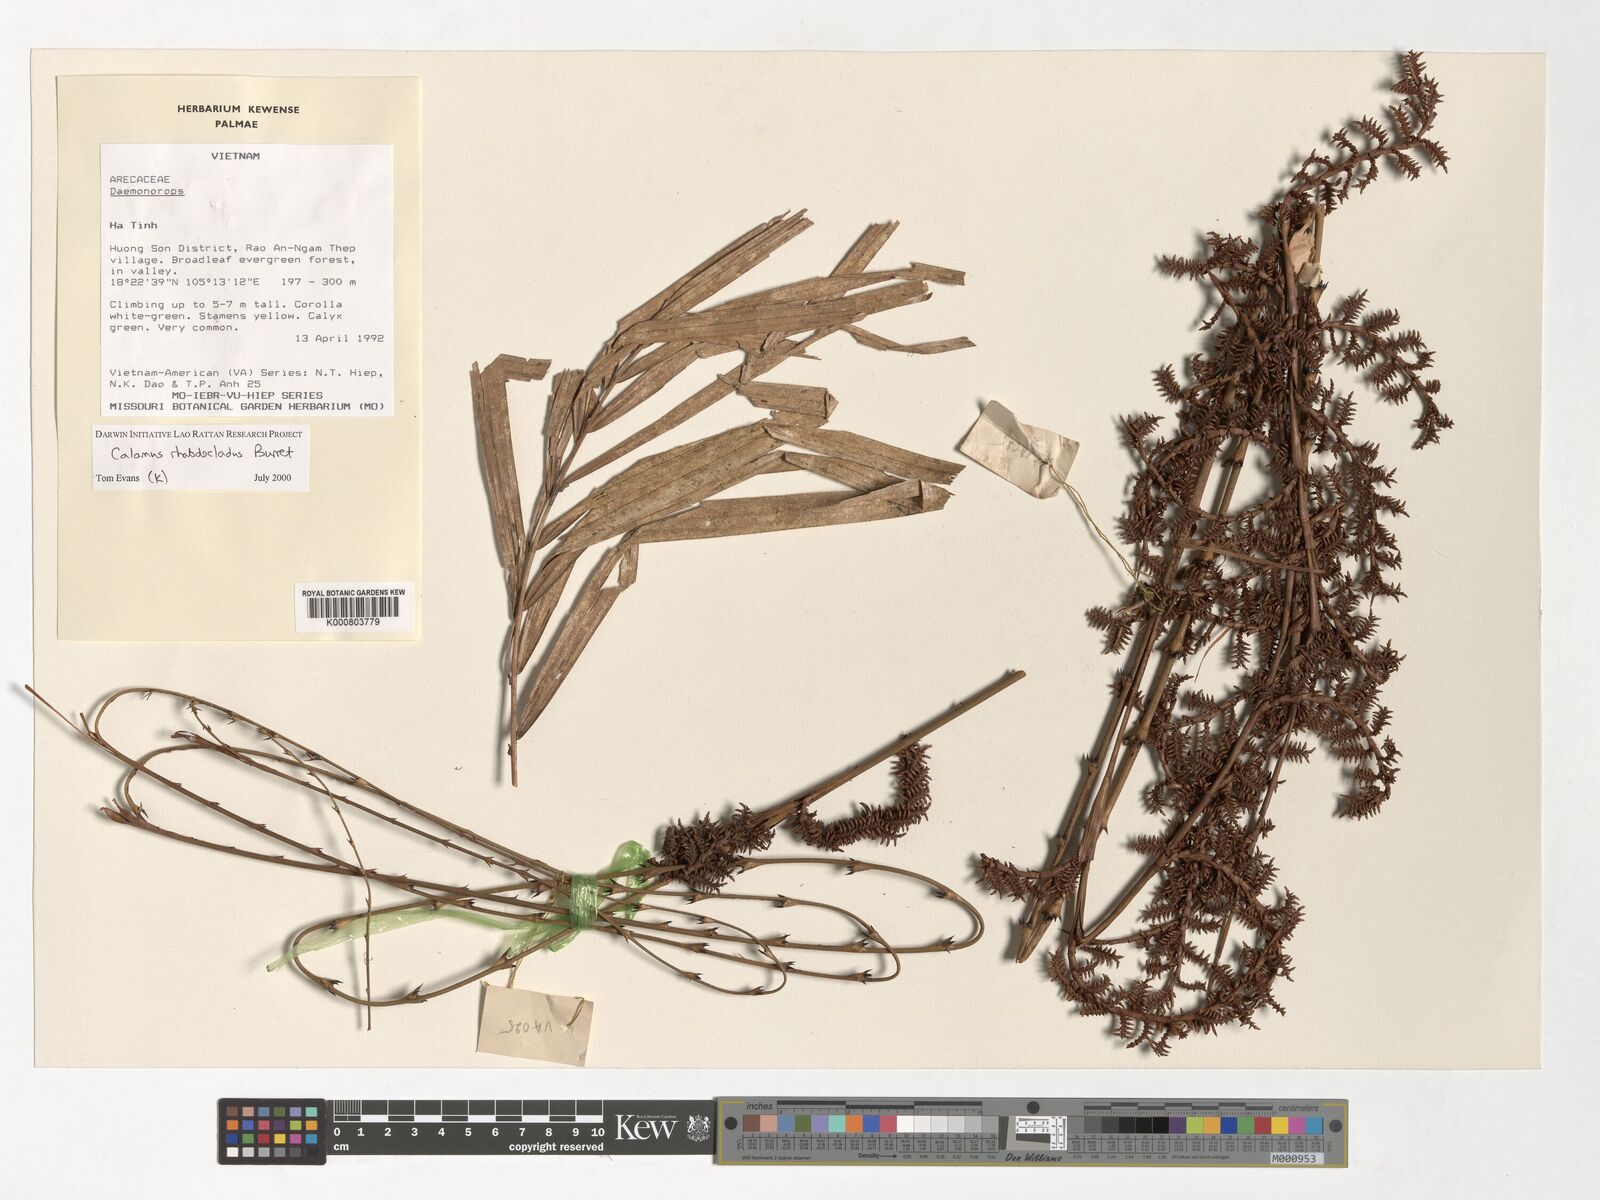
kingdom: Plantae
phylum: Tracheophyta
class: Liliopsida
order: Arecales
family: Arecaceae
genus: Calamus
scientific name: Calamus rhabdocladus
